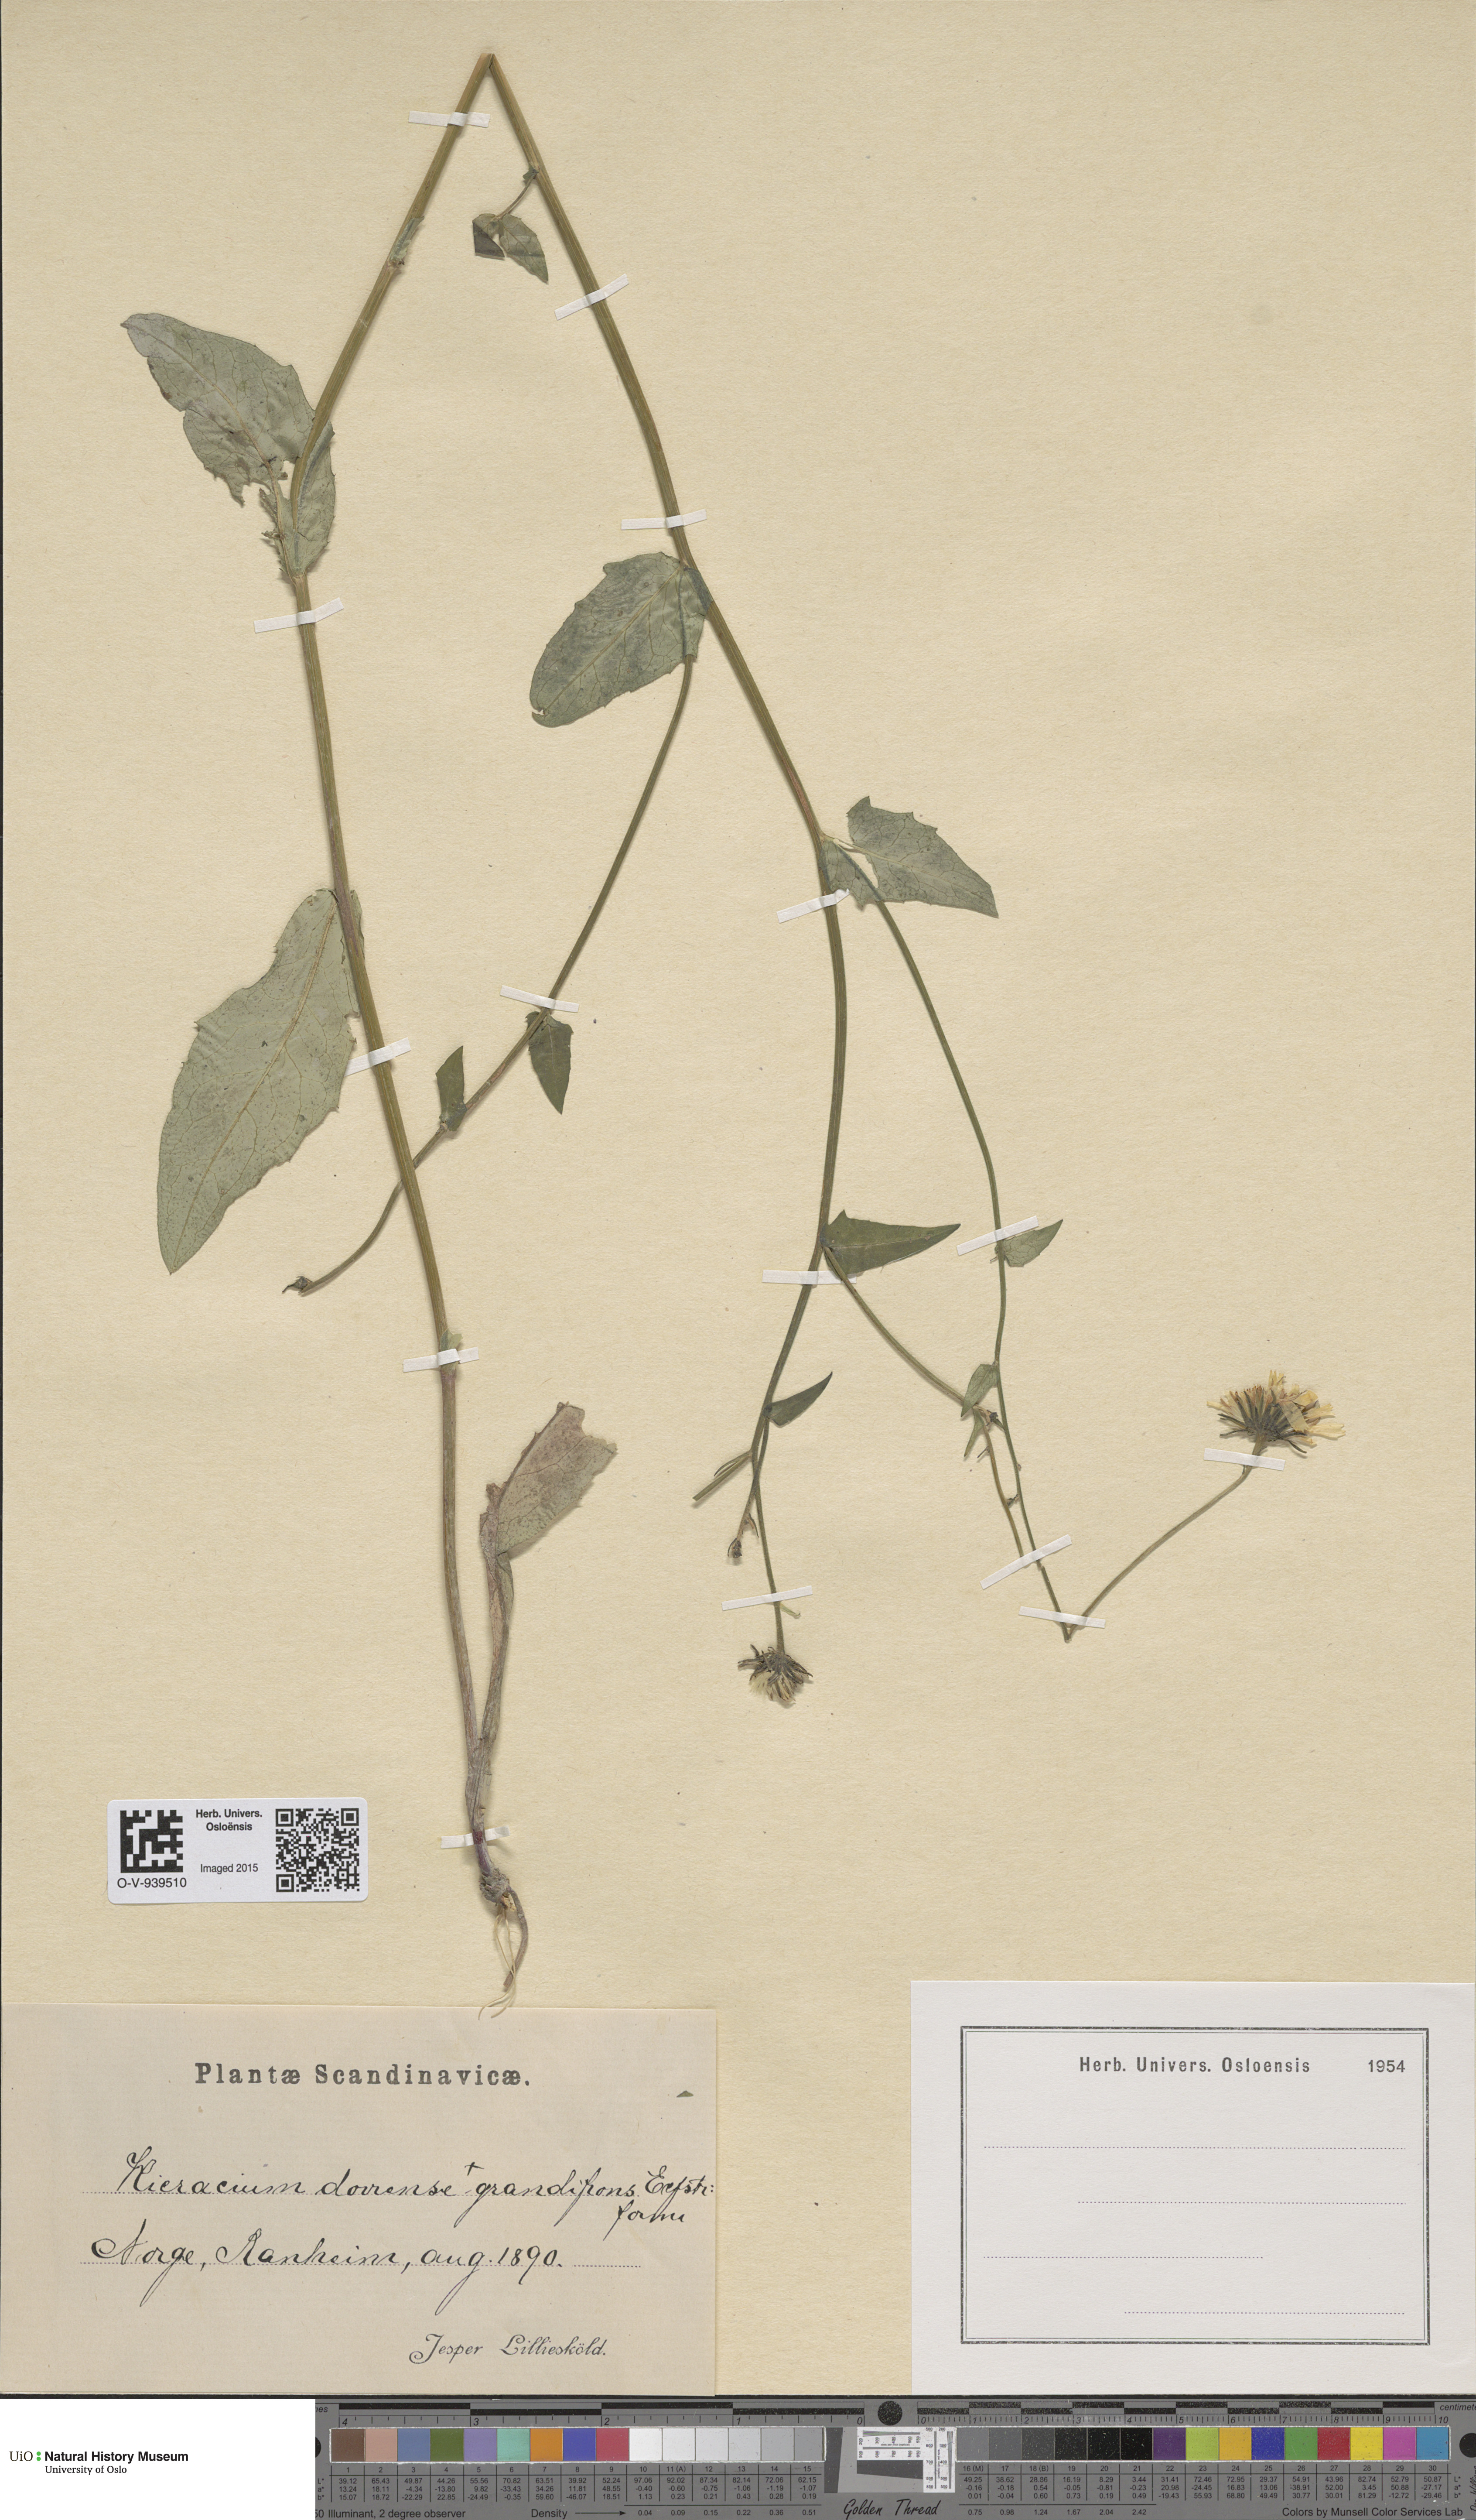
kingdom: Plantae
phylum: Tracheophyta
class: Magnoliopsida
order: Asterales
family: Asteraceae
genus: Hieracium
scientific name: Hieracium dovrense
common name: Dovre hawkweed
